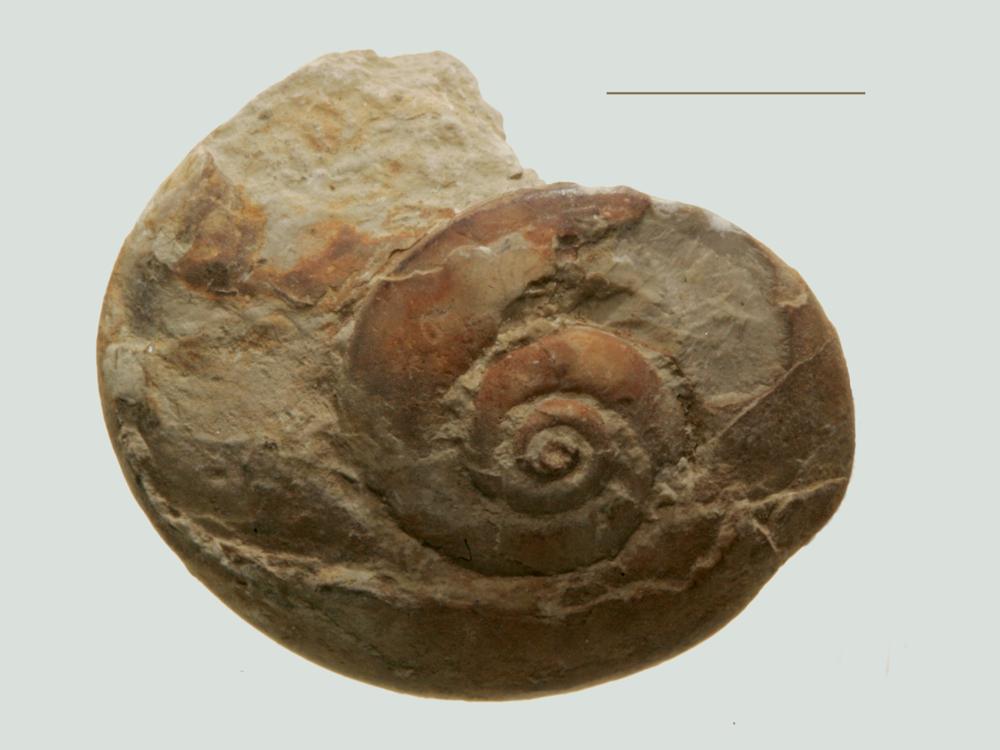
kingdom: Animalia
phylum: Mollusca
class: Gastropoda
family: Bellerophontidae
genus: Cymbularia
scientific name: Cymbularia lenticularis
